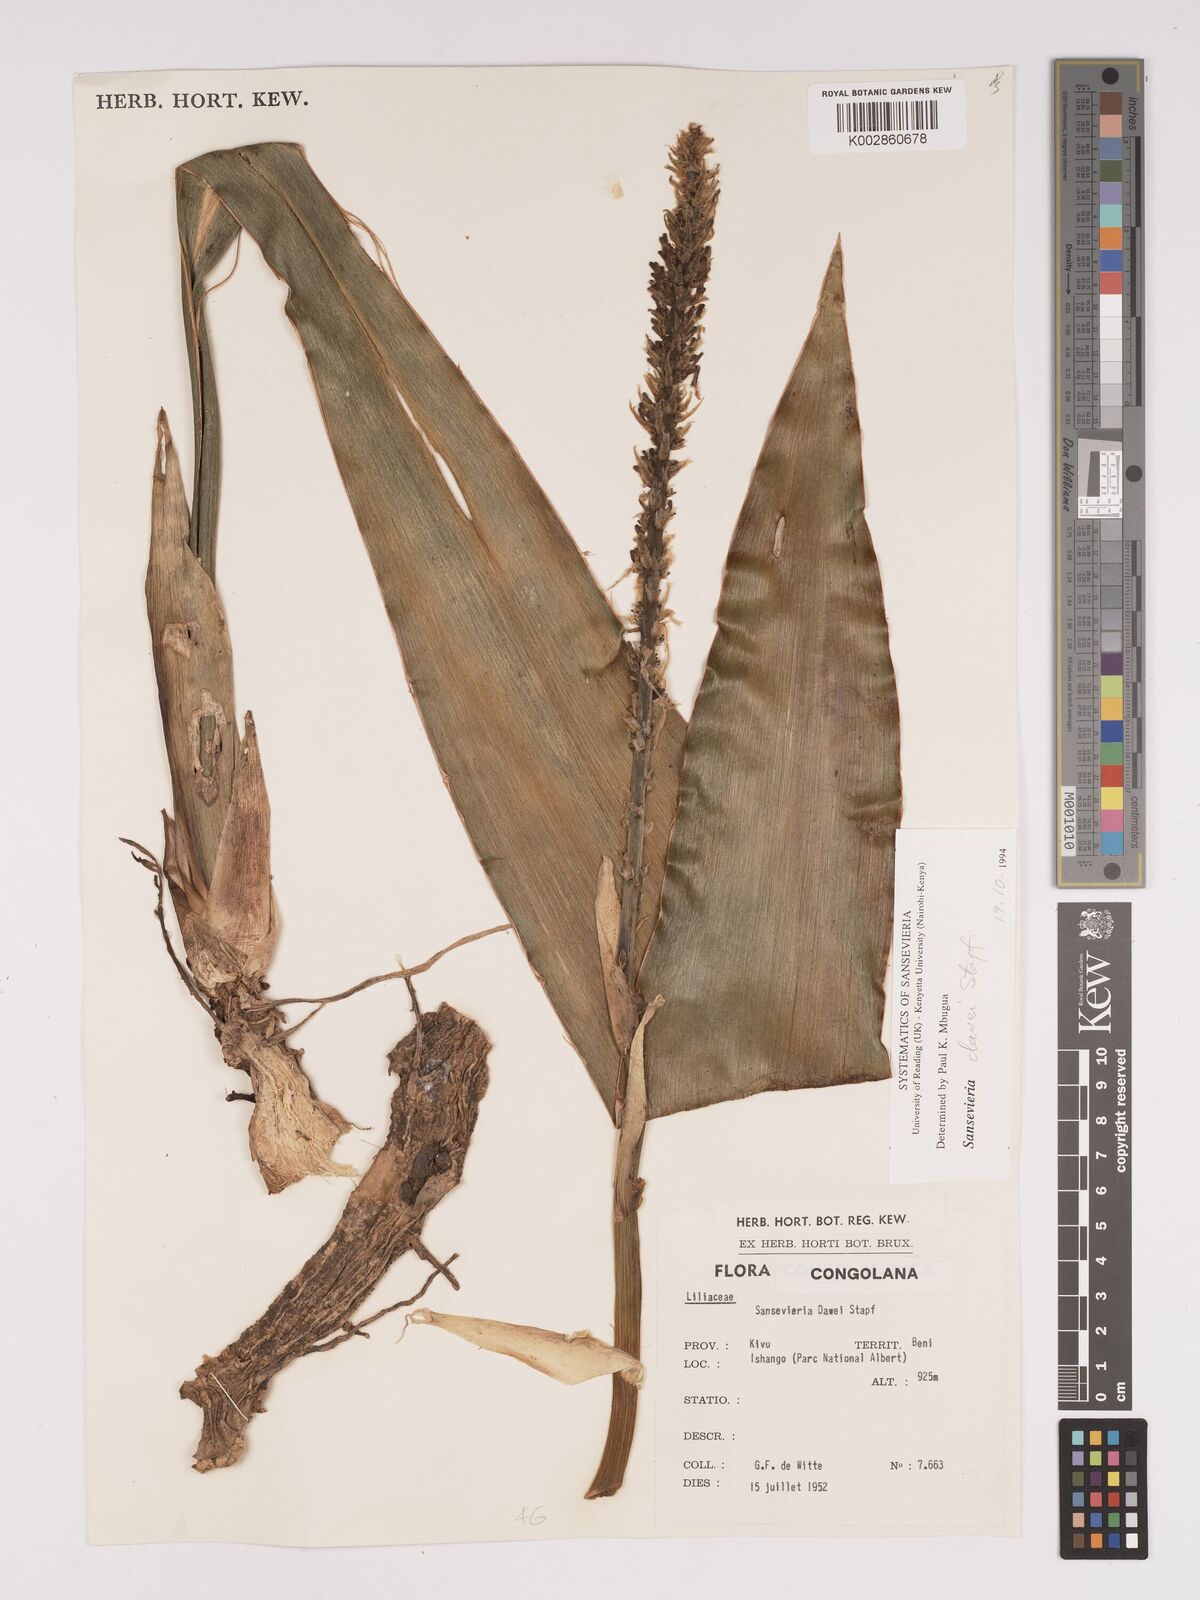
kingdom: Plantae
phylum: Tracheophyta
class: Liliopsida
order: Asparagales
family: Asparagaceae
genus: Dracaena
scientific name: Dracaena dawei
